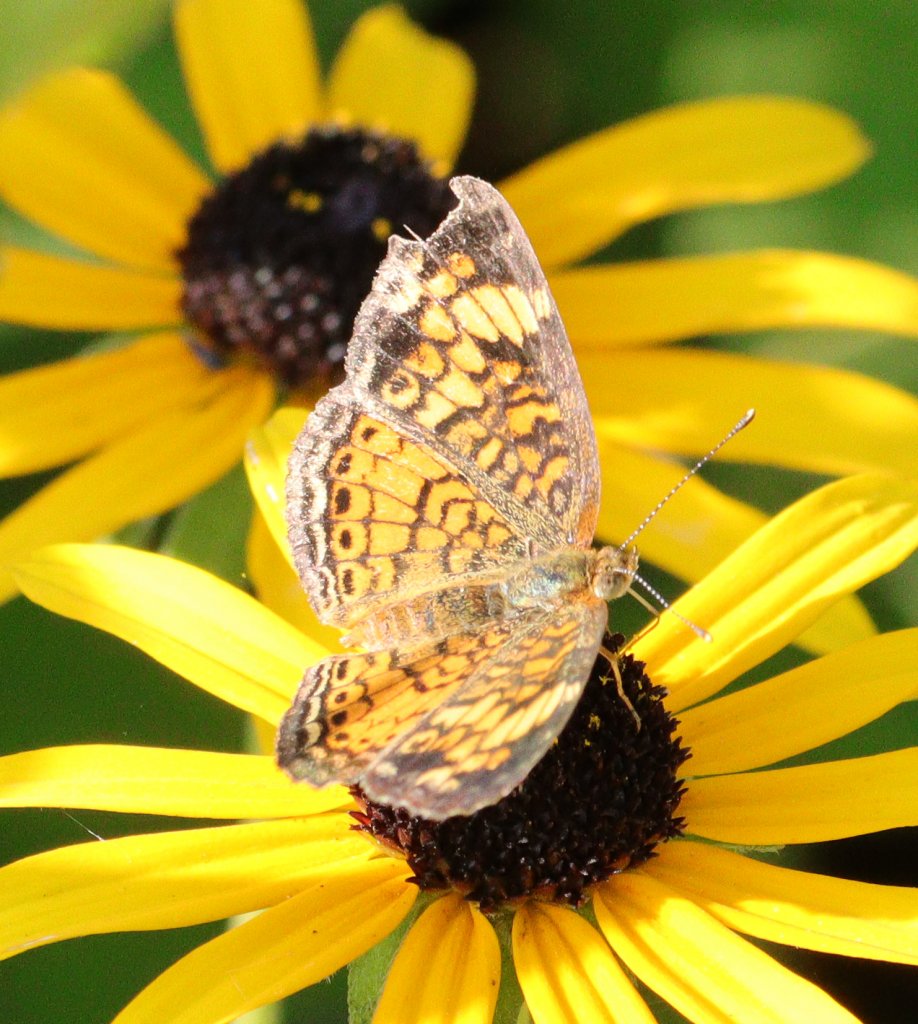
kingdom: Animalia
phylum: Arthropoda
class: Insecta
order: Lepidoptera
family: Nymphalidae
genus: Phyciodes
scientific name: Phyciodes tharos
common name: Pearl Crescent
